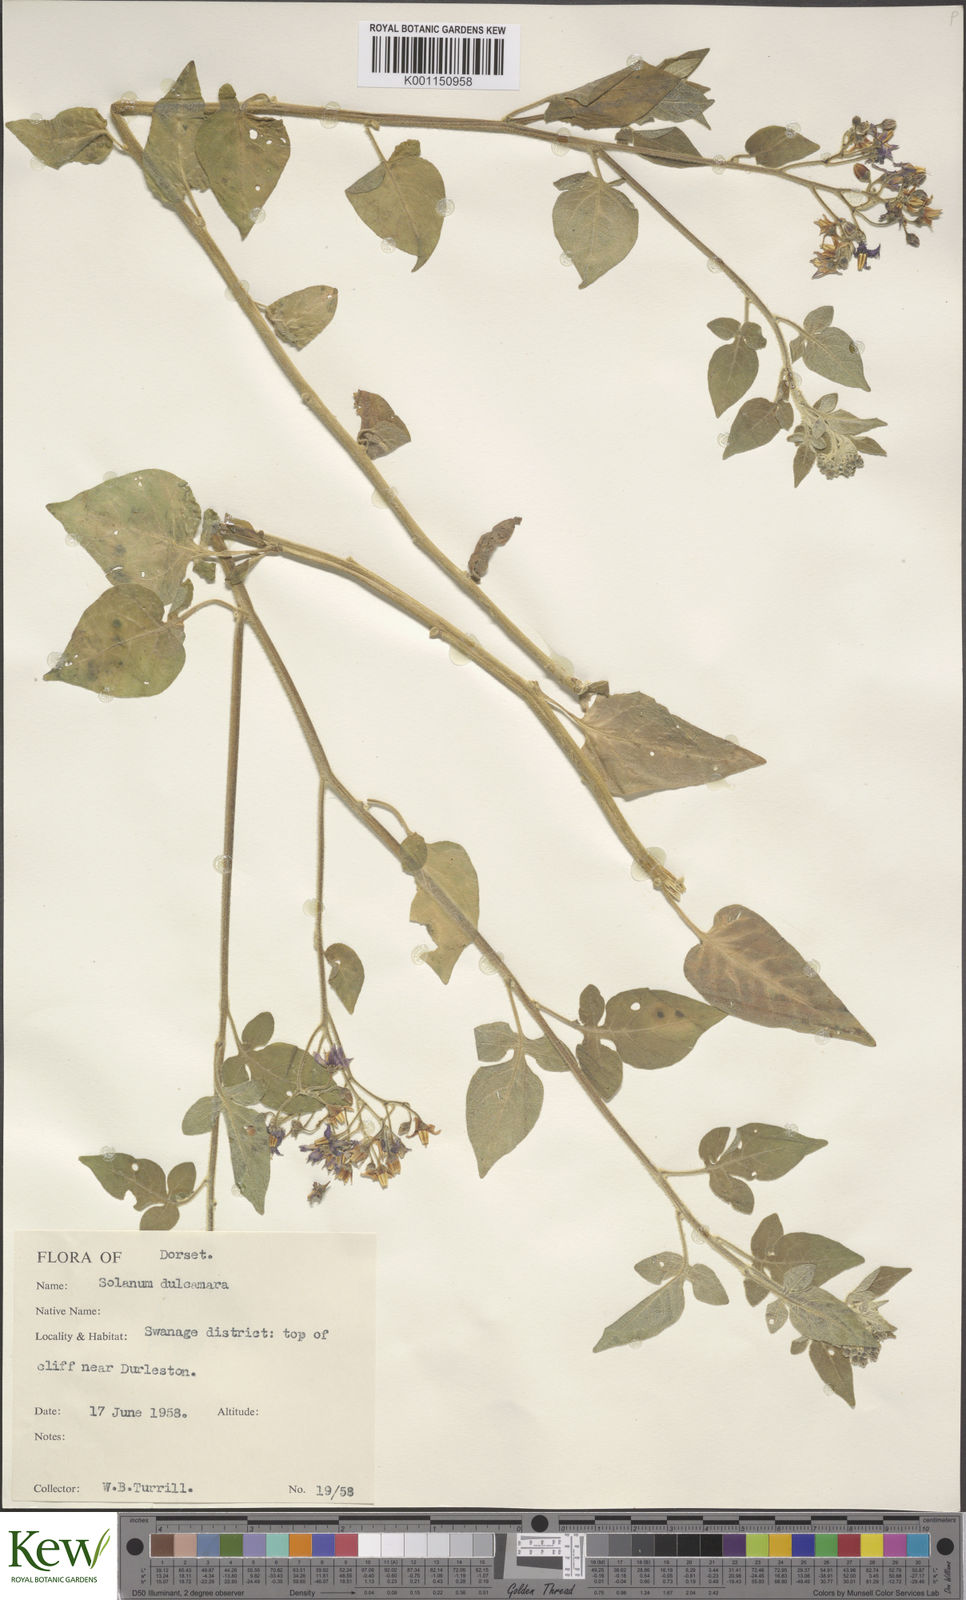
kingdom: Plantae
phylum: Tracheophyta
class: Magnoliopsida
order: Solanales
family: Solanaceae
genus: Solanum
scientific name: Solanum dulcamara
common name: Climbing nightshade
